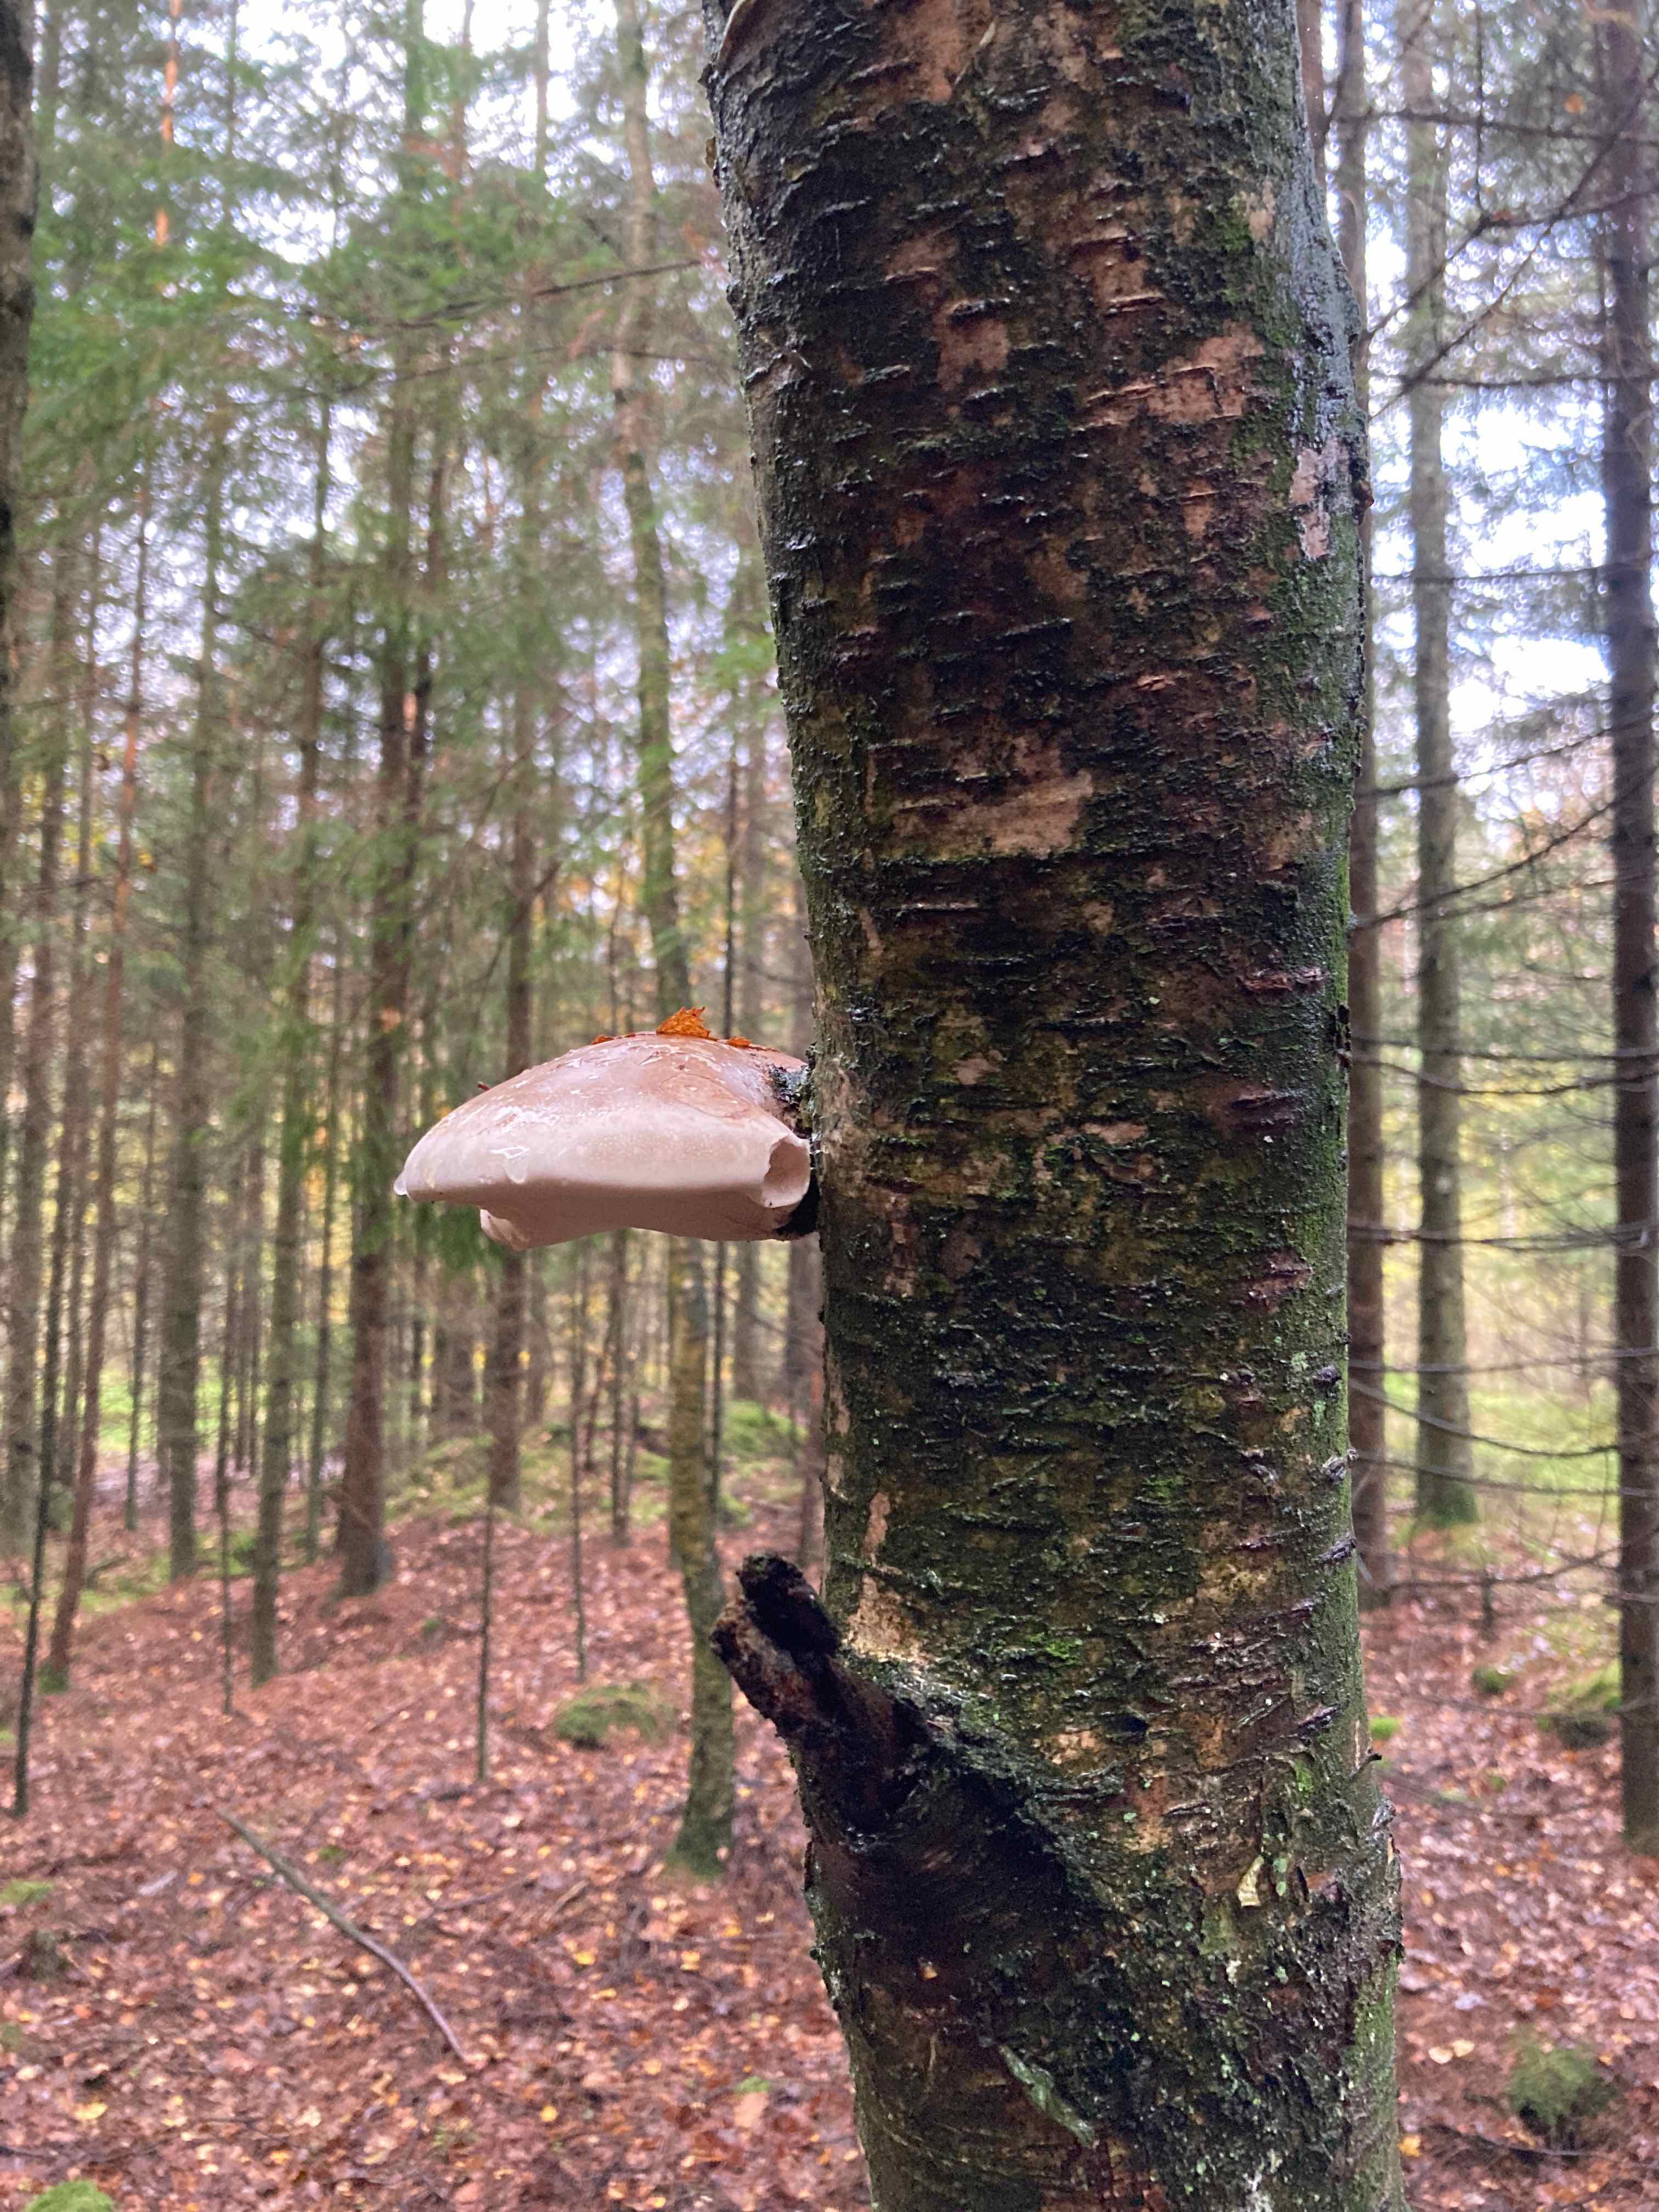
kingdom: Fungi
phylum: Basidiomycota
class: Agaricomycetes
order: Polyporales
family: Fomitopsidaceae
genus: Fomitopsis
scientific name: Fomitopsis betulina
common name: birkeporesvamp
